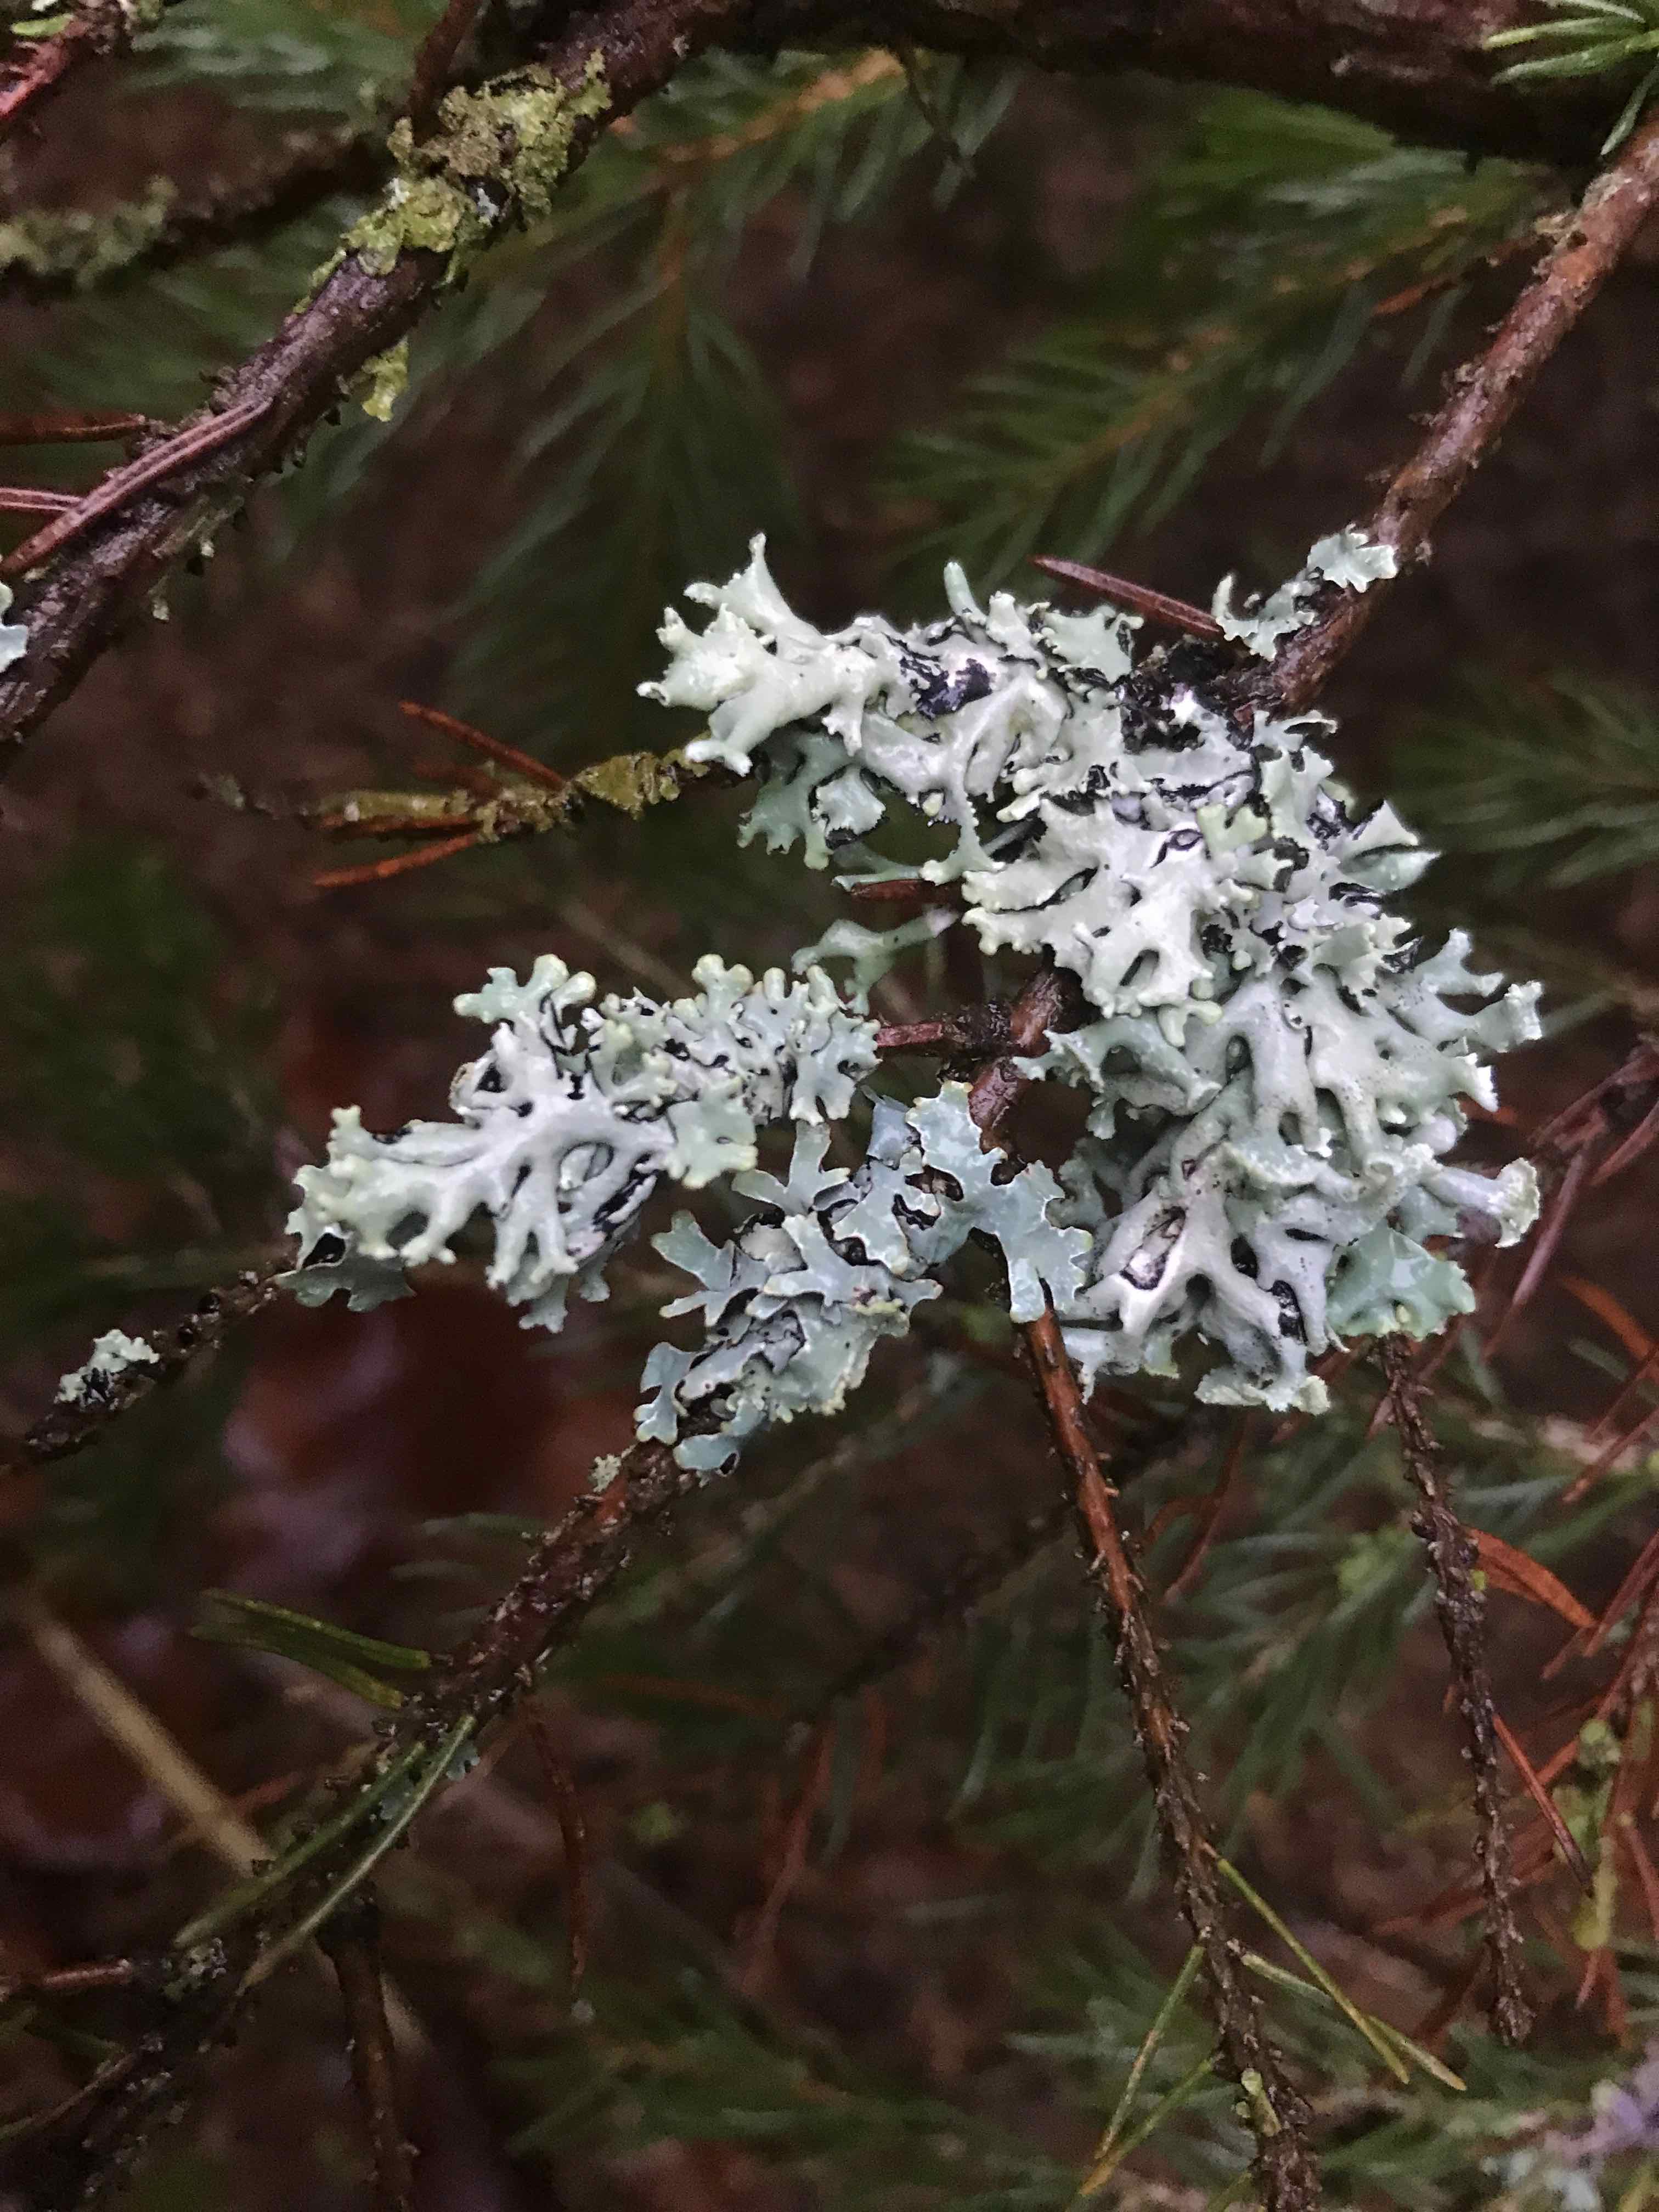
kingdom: Fungi
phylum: Ascomycota
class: Lecanoromycetes
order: Lecanorales
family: Parmeliaceae
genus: Hypogymnia
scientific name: Hypogymnia physodes
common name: almindelig kvistlav
